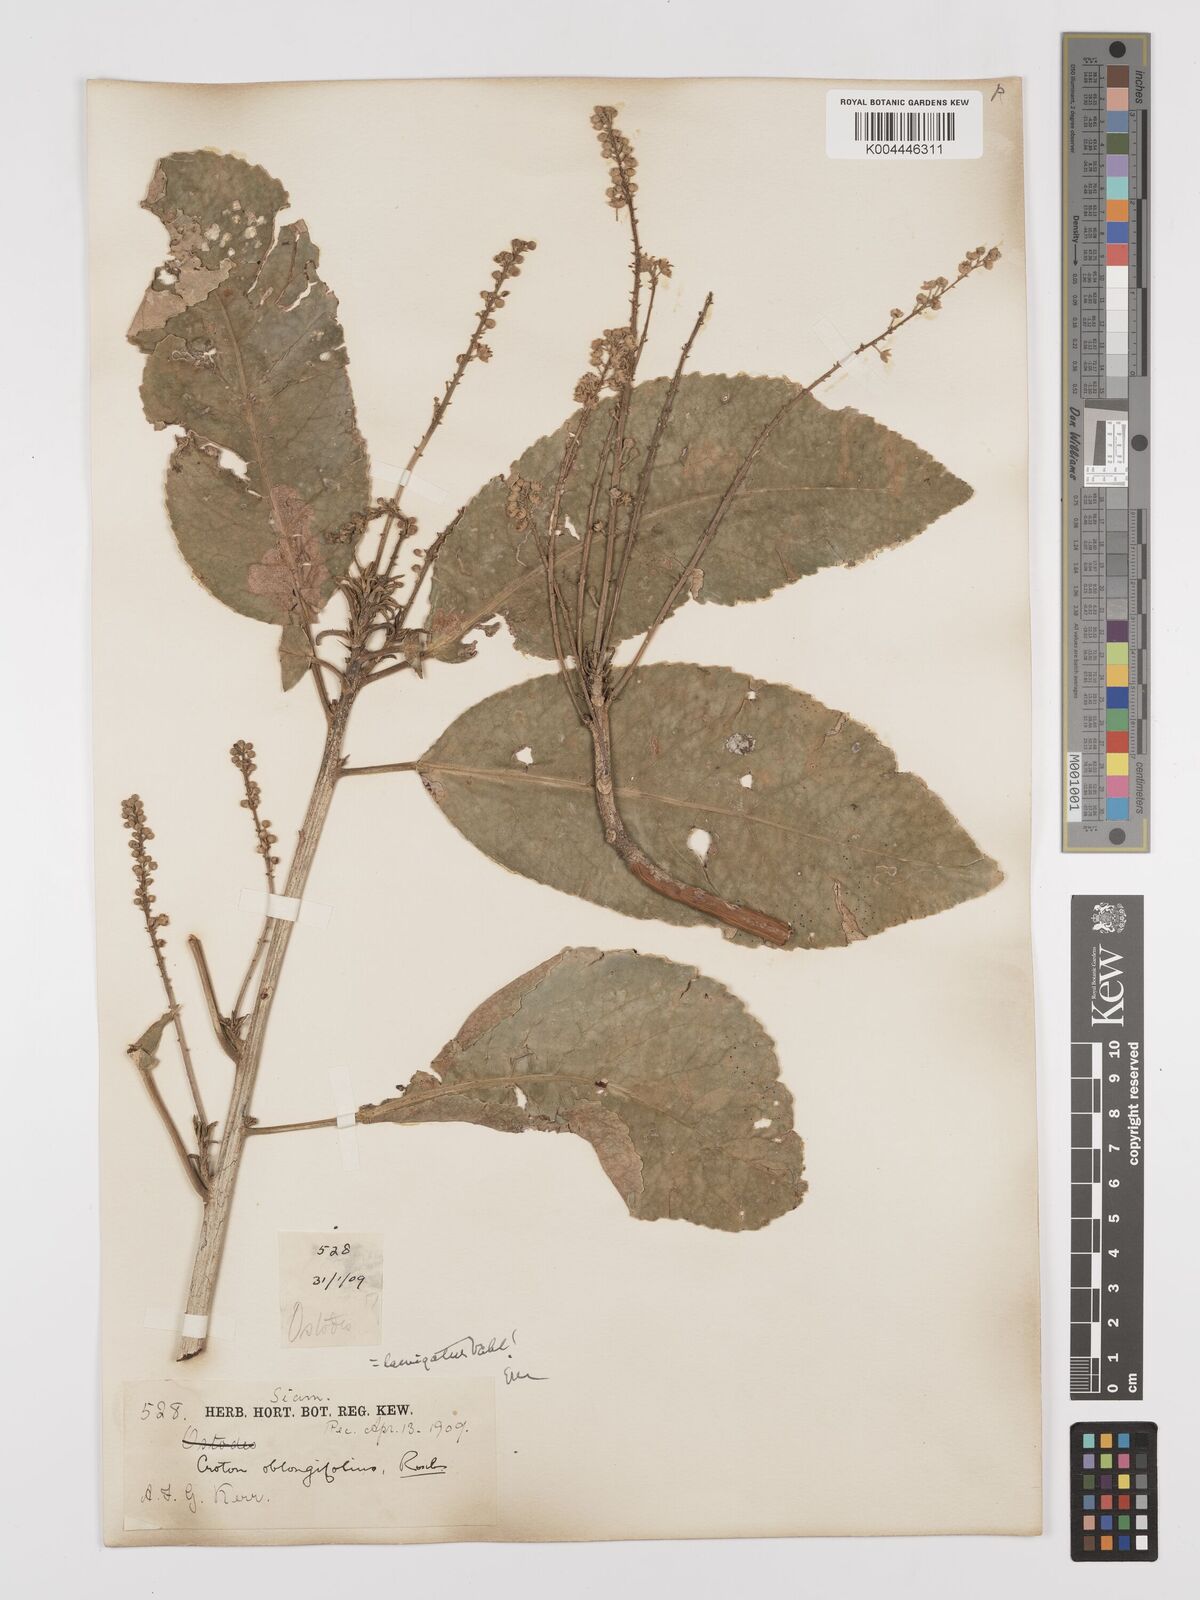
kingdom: Plantae
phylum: Tracheophyta
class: Magnoliopsida
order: Malpighiales
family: Euphorbiaceae
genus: Croton
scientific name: Croton
